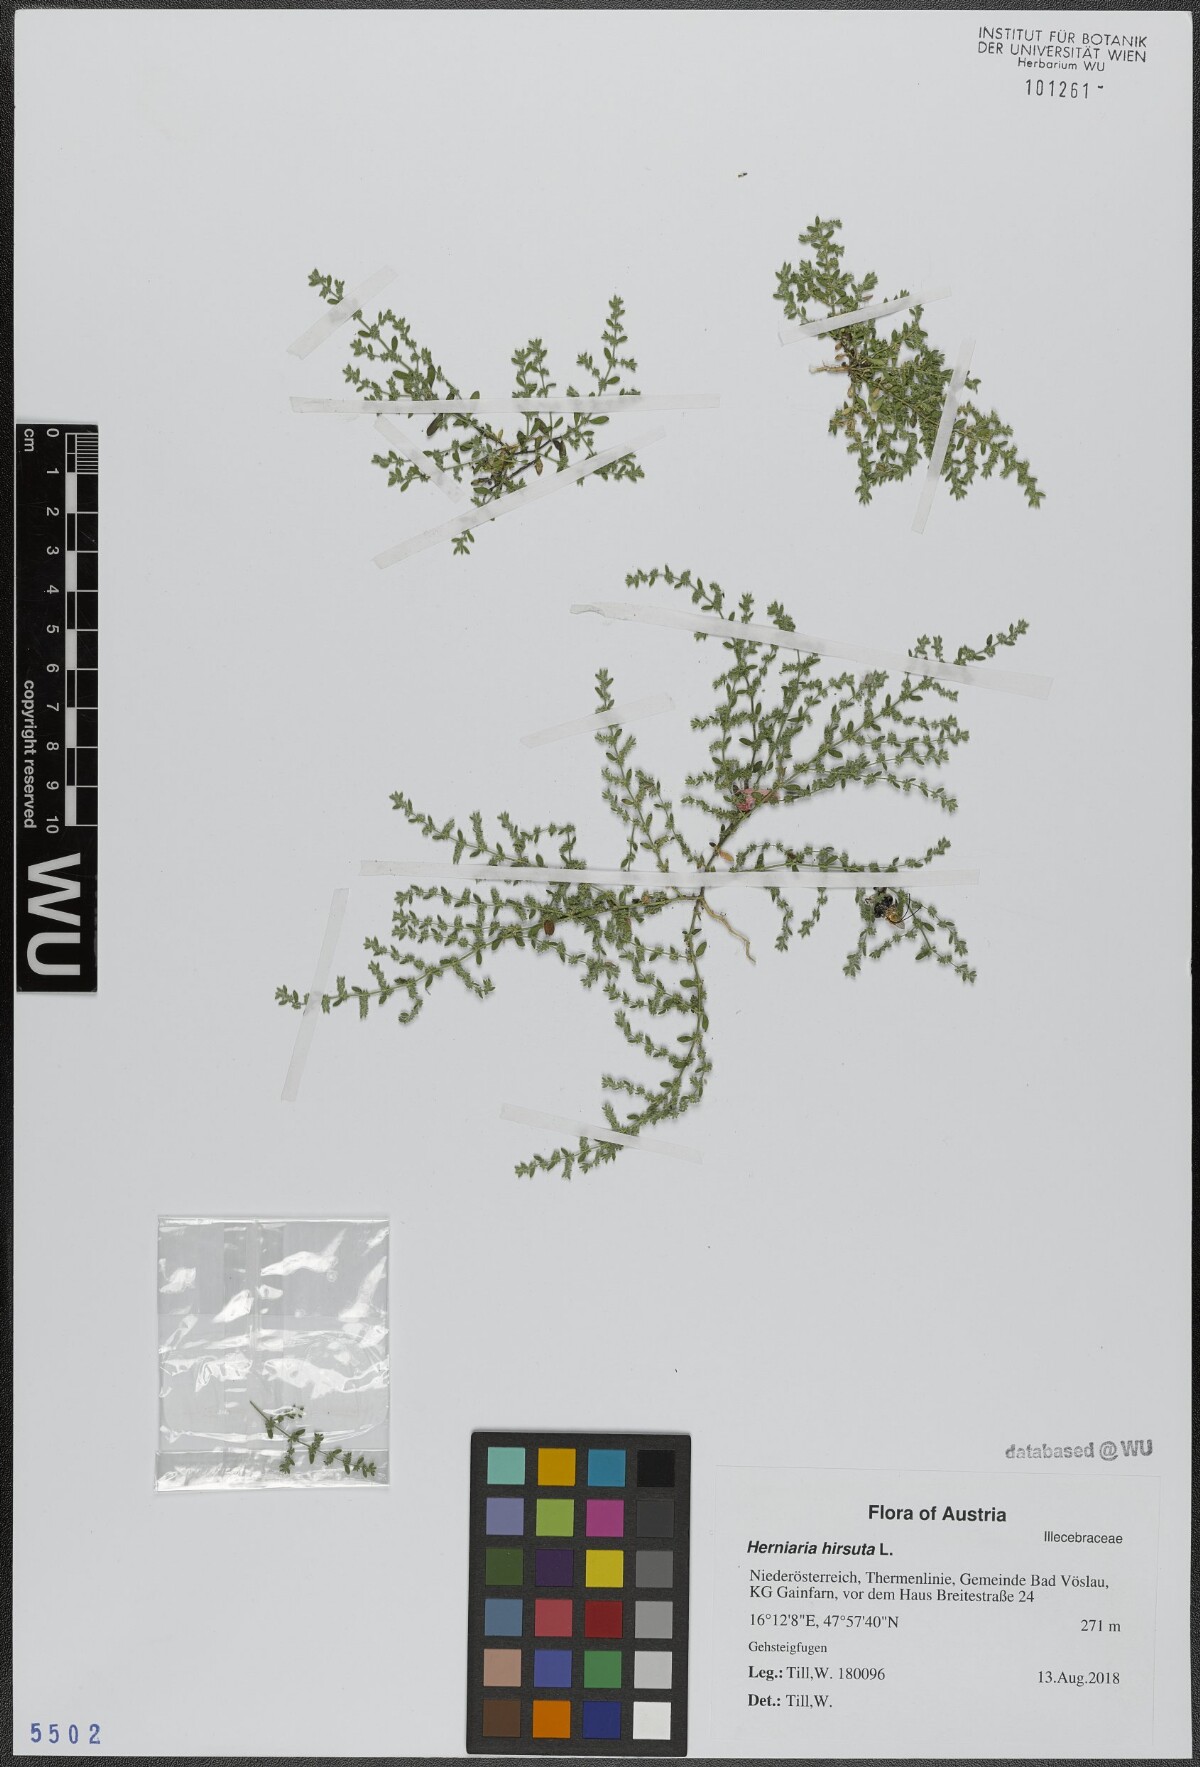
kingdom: Plantae
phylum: Tracheophyta
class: Magnoliopsida
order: Caryophyllales
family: Caryophyllaceae
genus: Herniaria
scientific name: Herniaria hirsuta
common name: Hairy rupturewort
